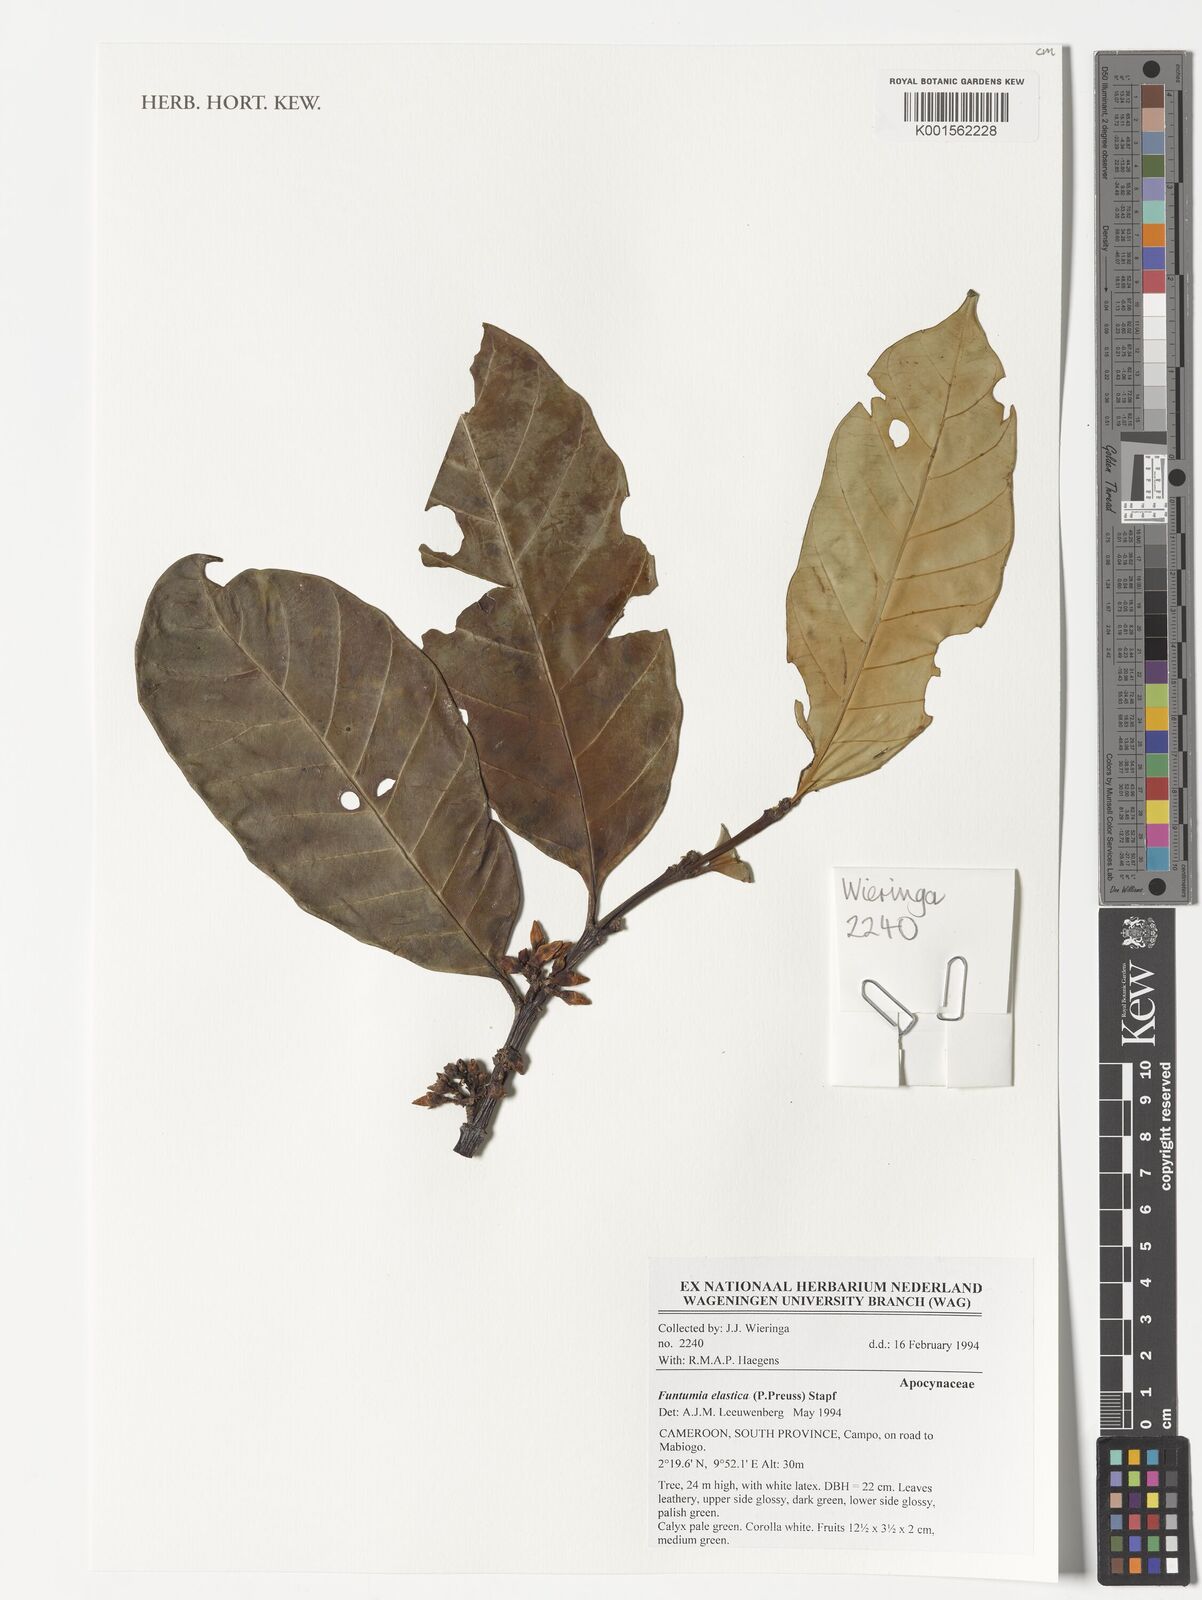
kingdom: Plantae
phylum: Tracheophyta
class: Magnoliopsida
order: Gentianales
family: Apocynaceae
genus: Funtumia
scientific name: Funtumia elastica
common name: Silkrubber
